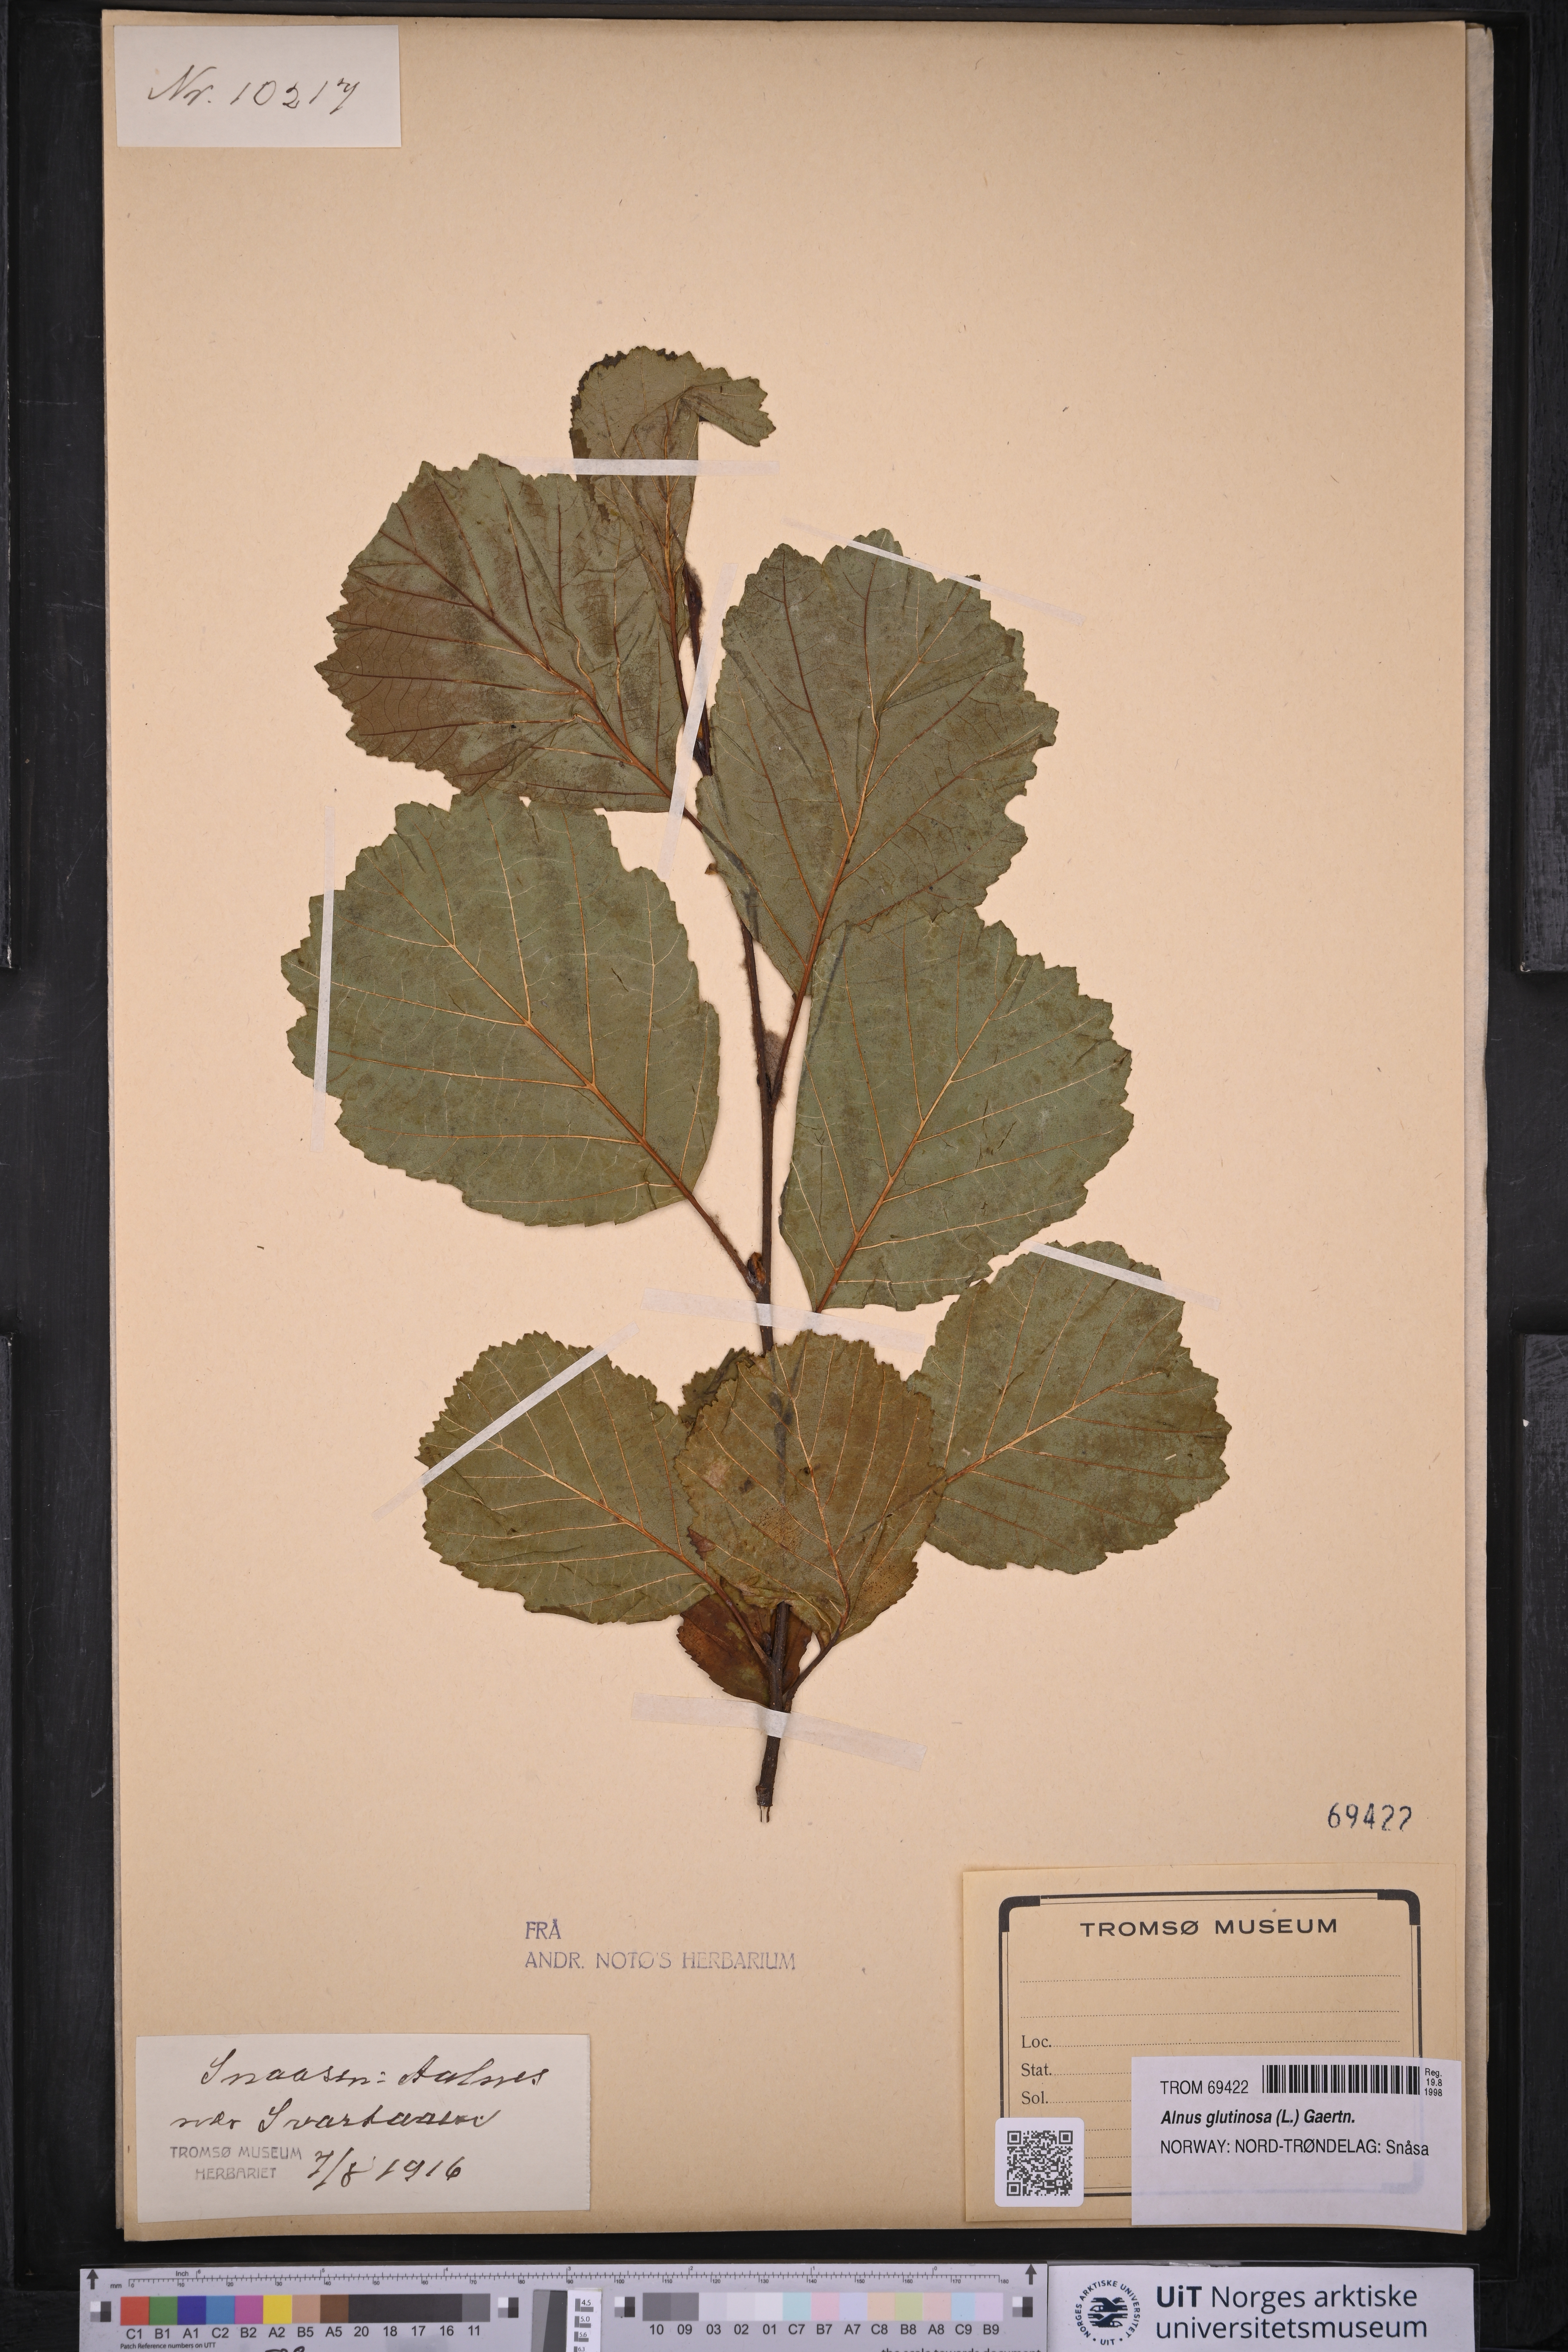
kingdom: Plantae
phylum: Tracheophyta
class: Magnoliopsida
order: Fagales
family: Betulaceae
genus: Alnus
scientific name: Alnus glutinosa
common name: Black alder
